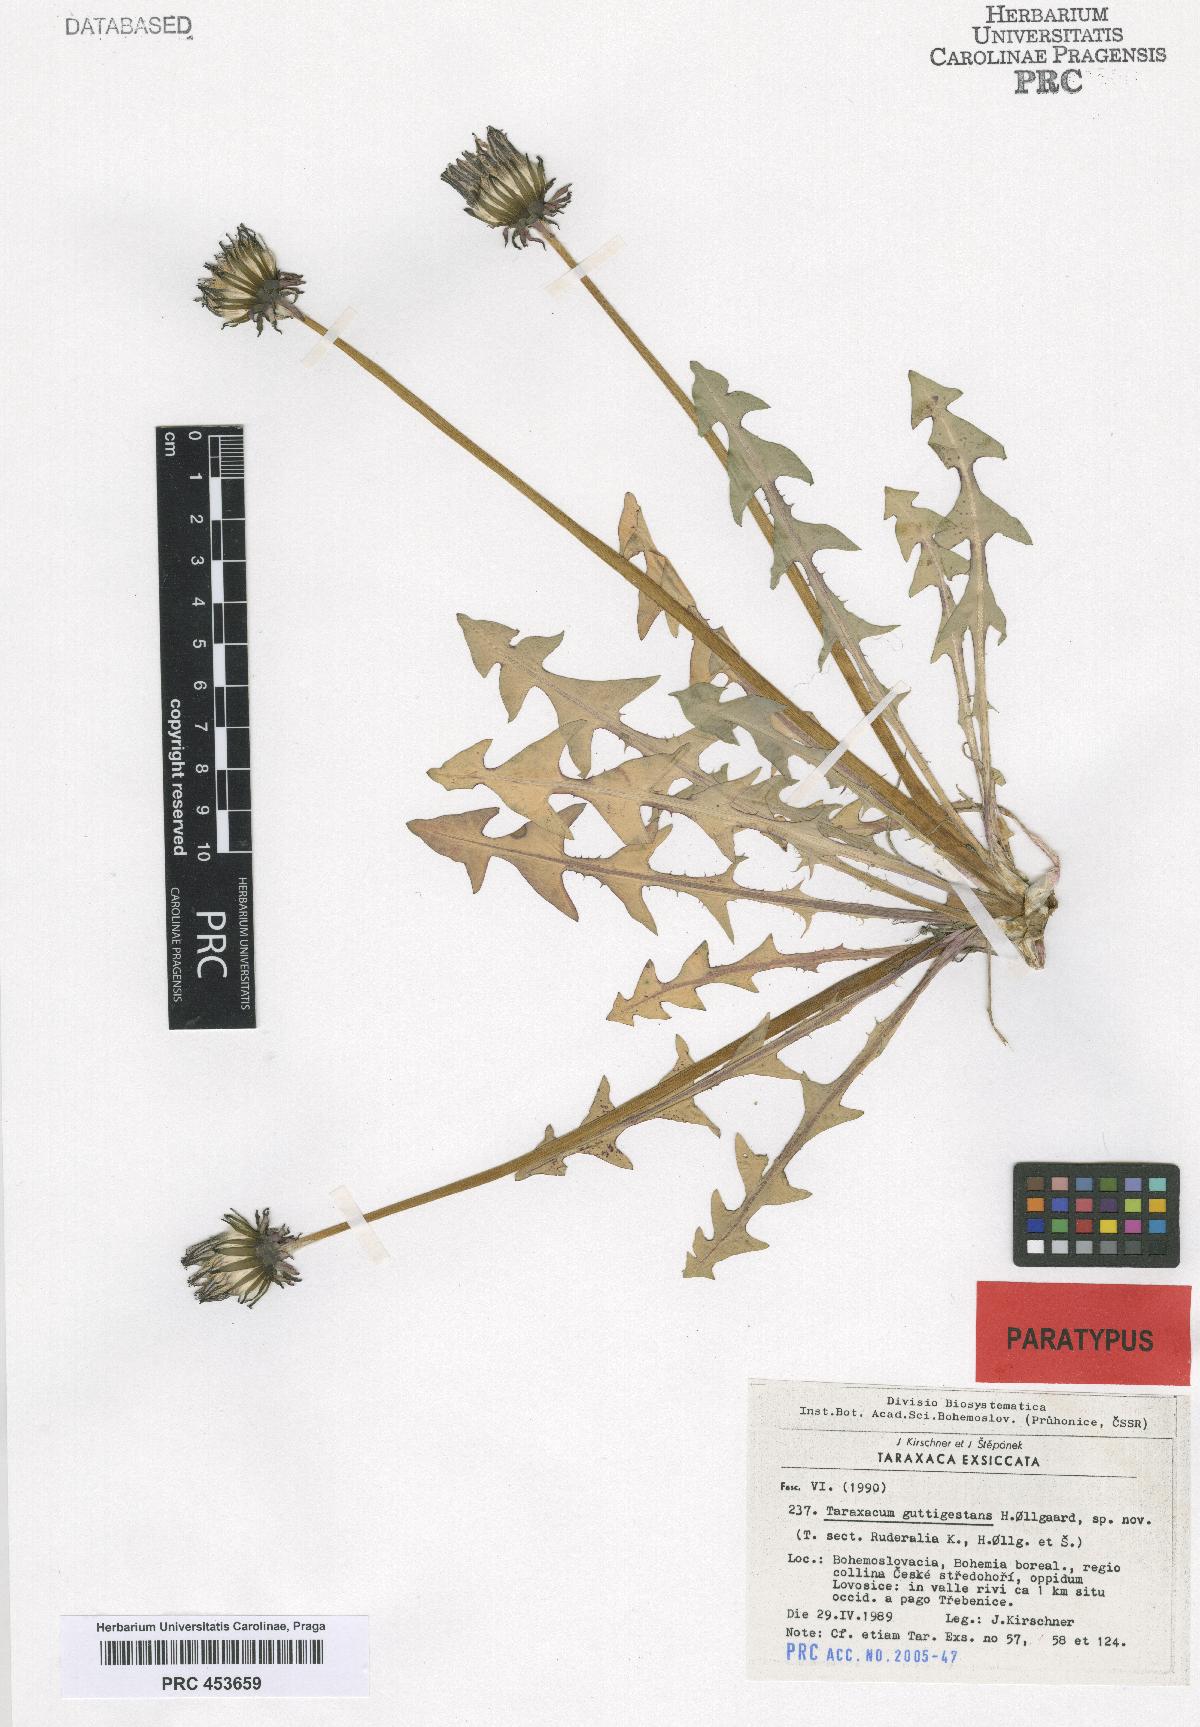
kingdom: Plantae
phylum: Tracheophyta
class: Magnoliopsida
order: Asterales
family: Asteraceae
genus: Taraxacum
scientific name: Taraxacum guttigestans
